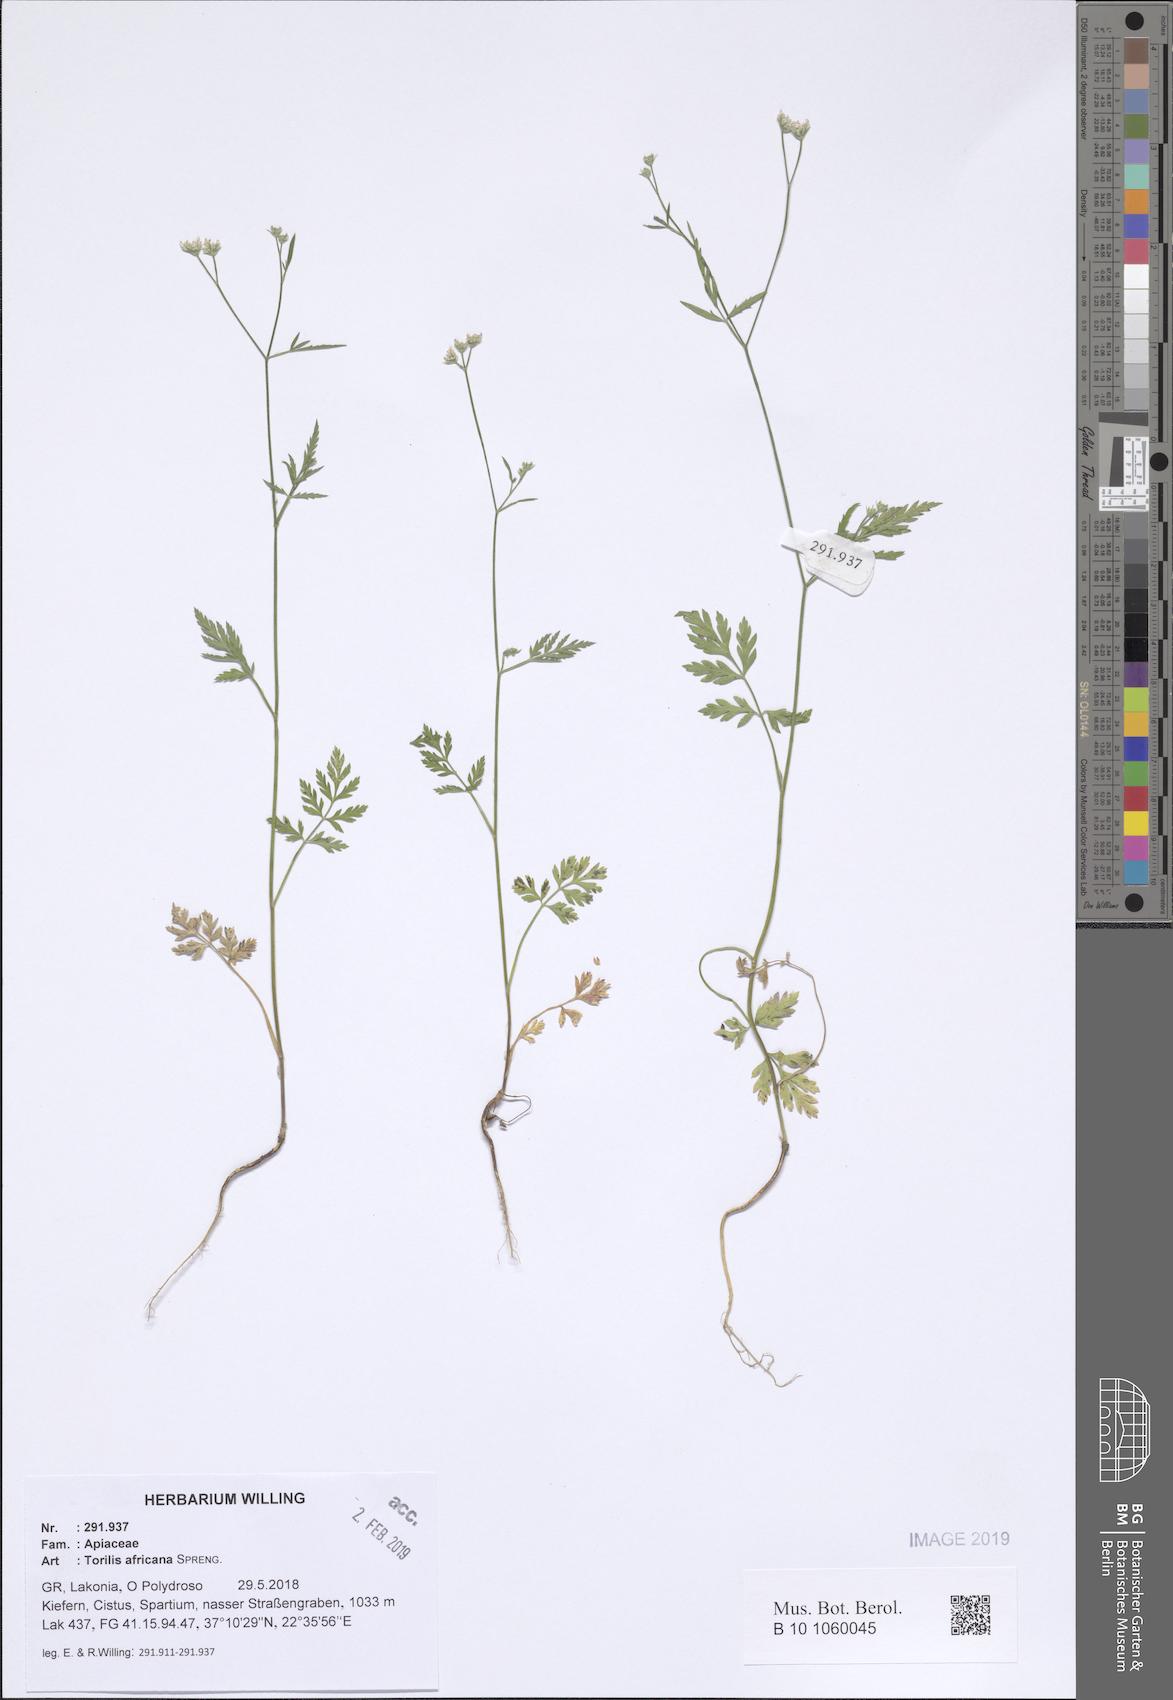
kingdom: Plantae
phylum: Tracheophyta
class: Magnoliopsida
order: Apiales
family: Apiaceae
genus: Torilis
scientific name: Torilis africana
